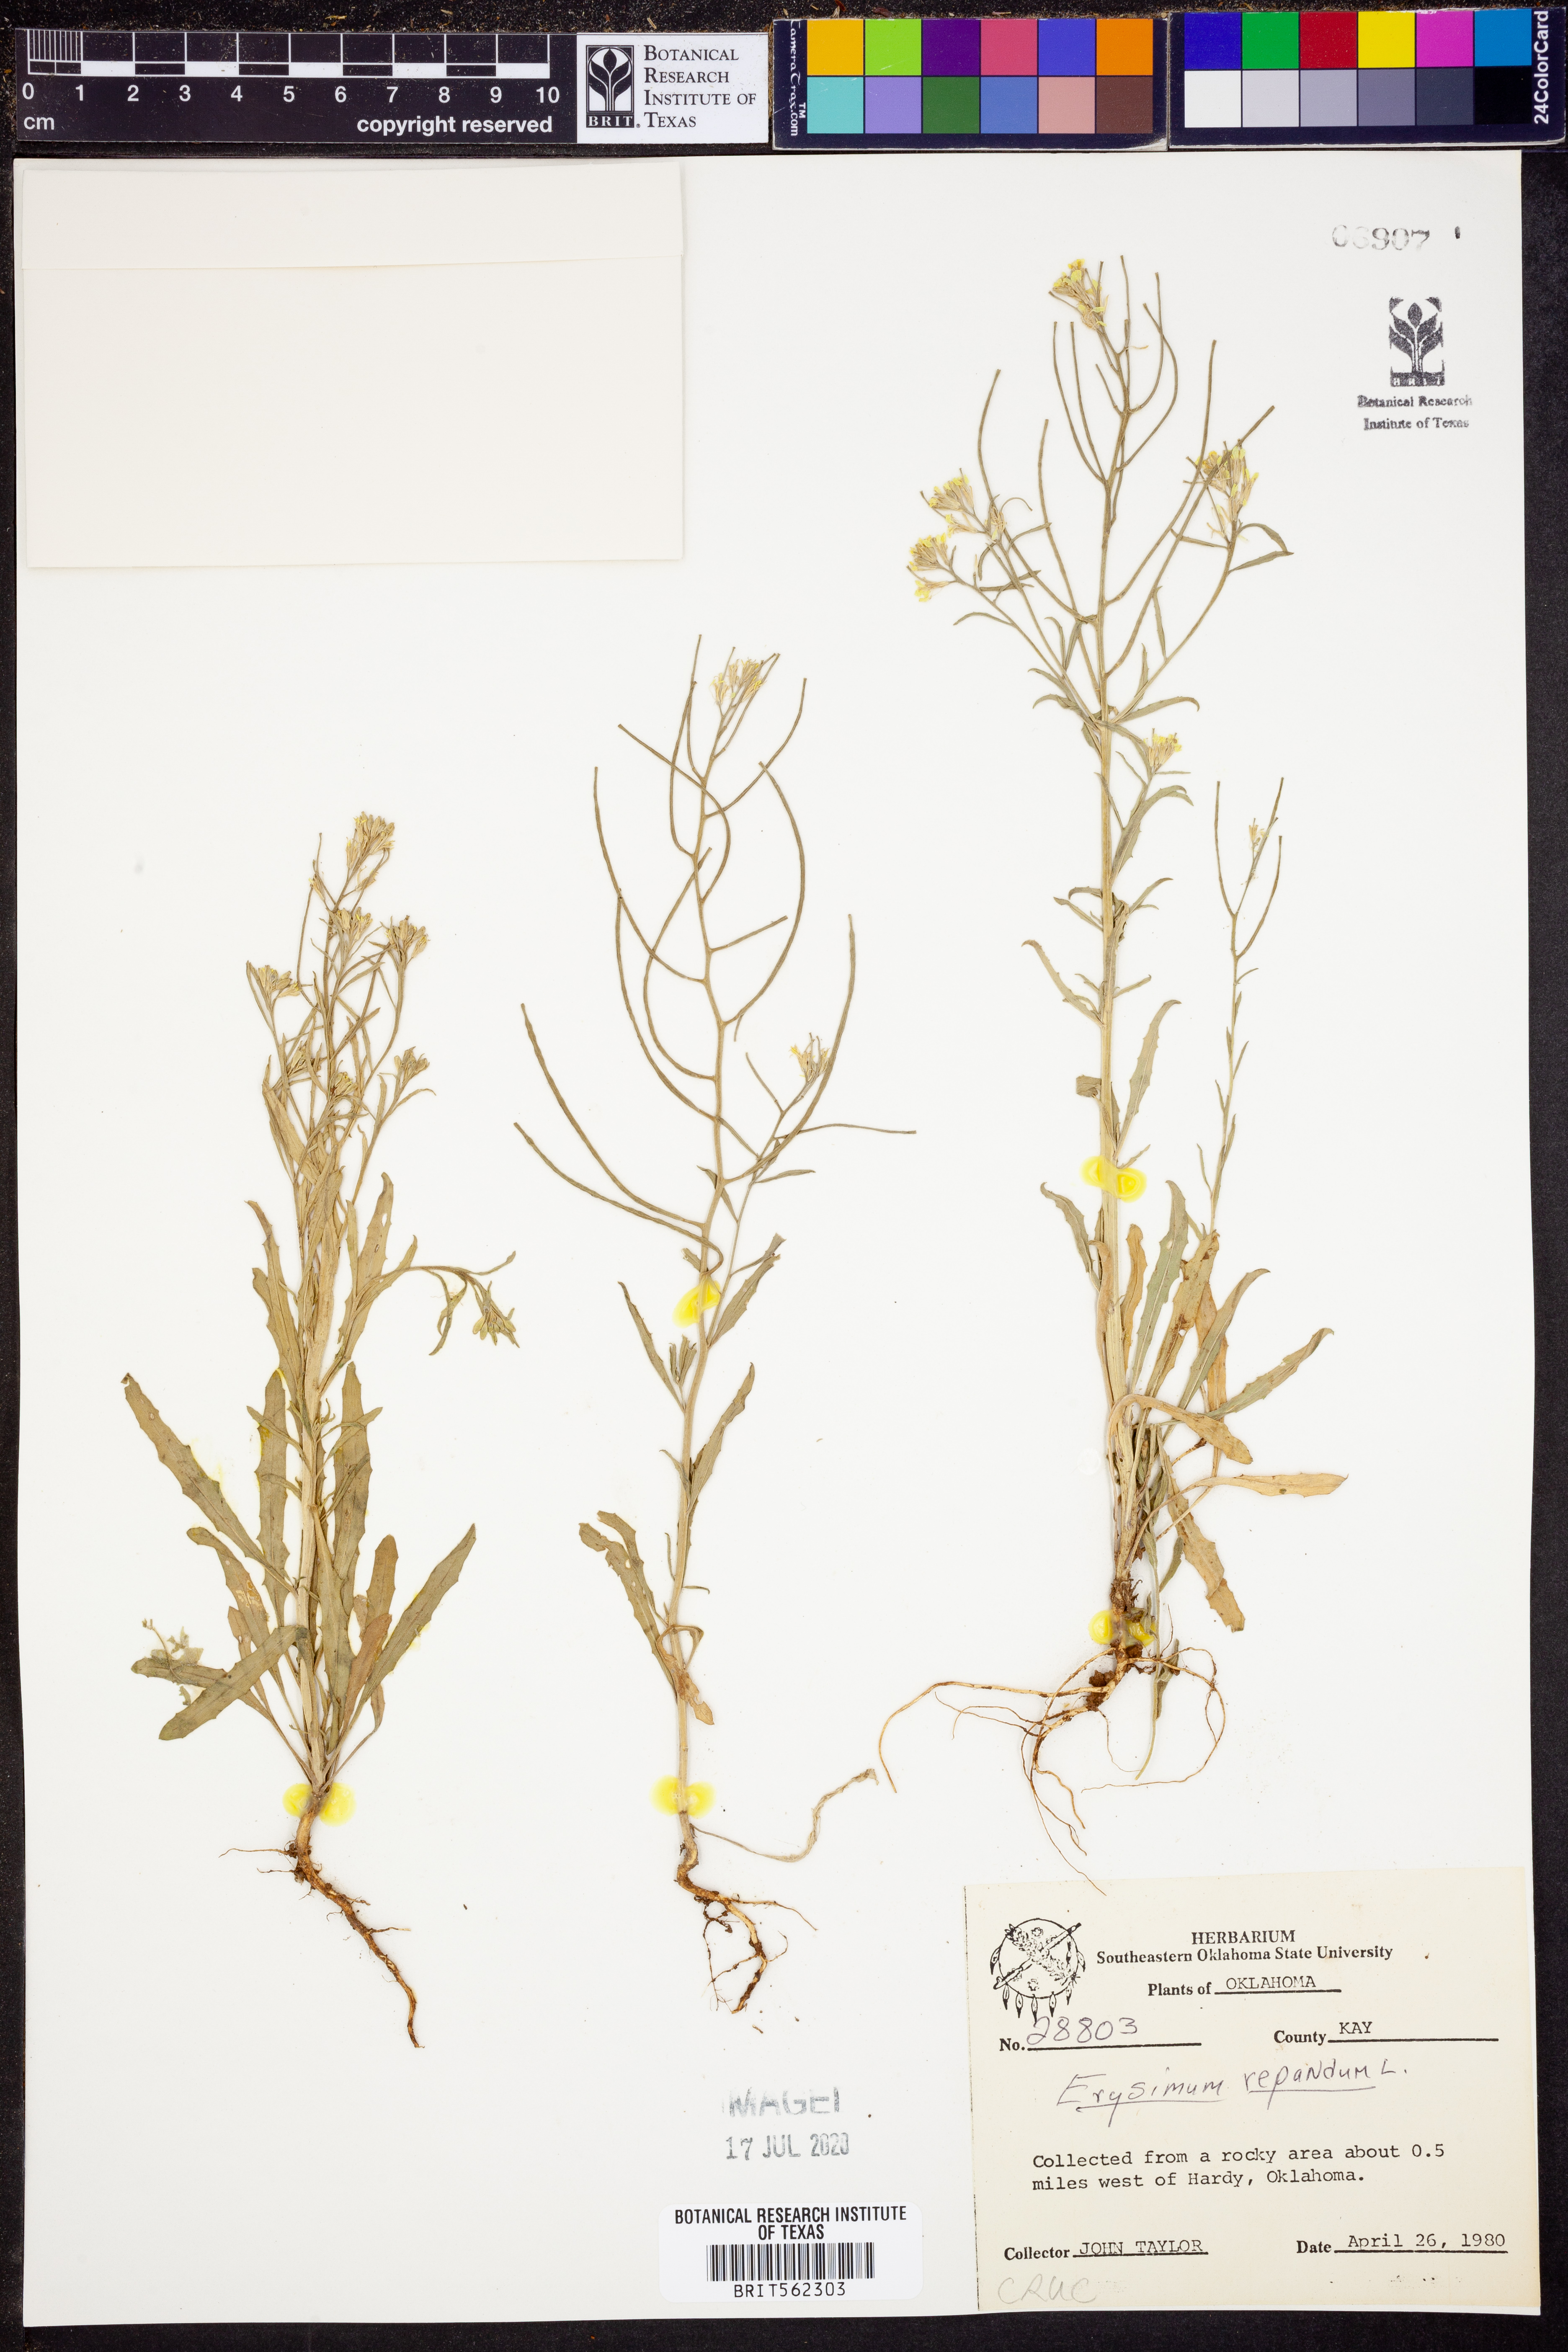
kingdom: Plantae
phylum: Tracheophyta
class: Magnoliopsida
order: Brassicales
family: Brassicaceae
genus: Erysimum
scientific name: Erysimum repandum
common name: Spreading wallflower
